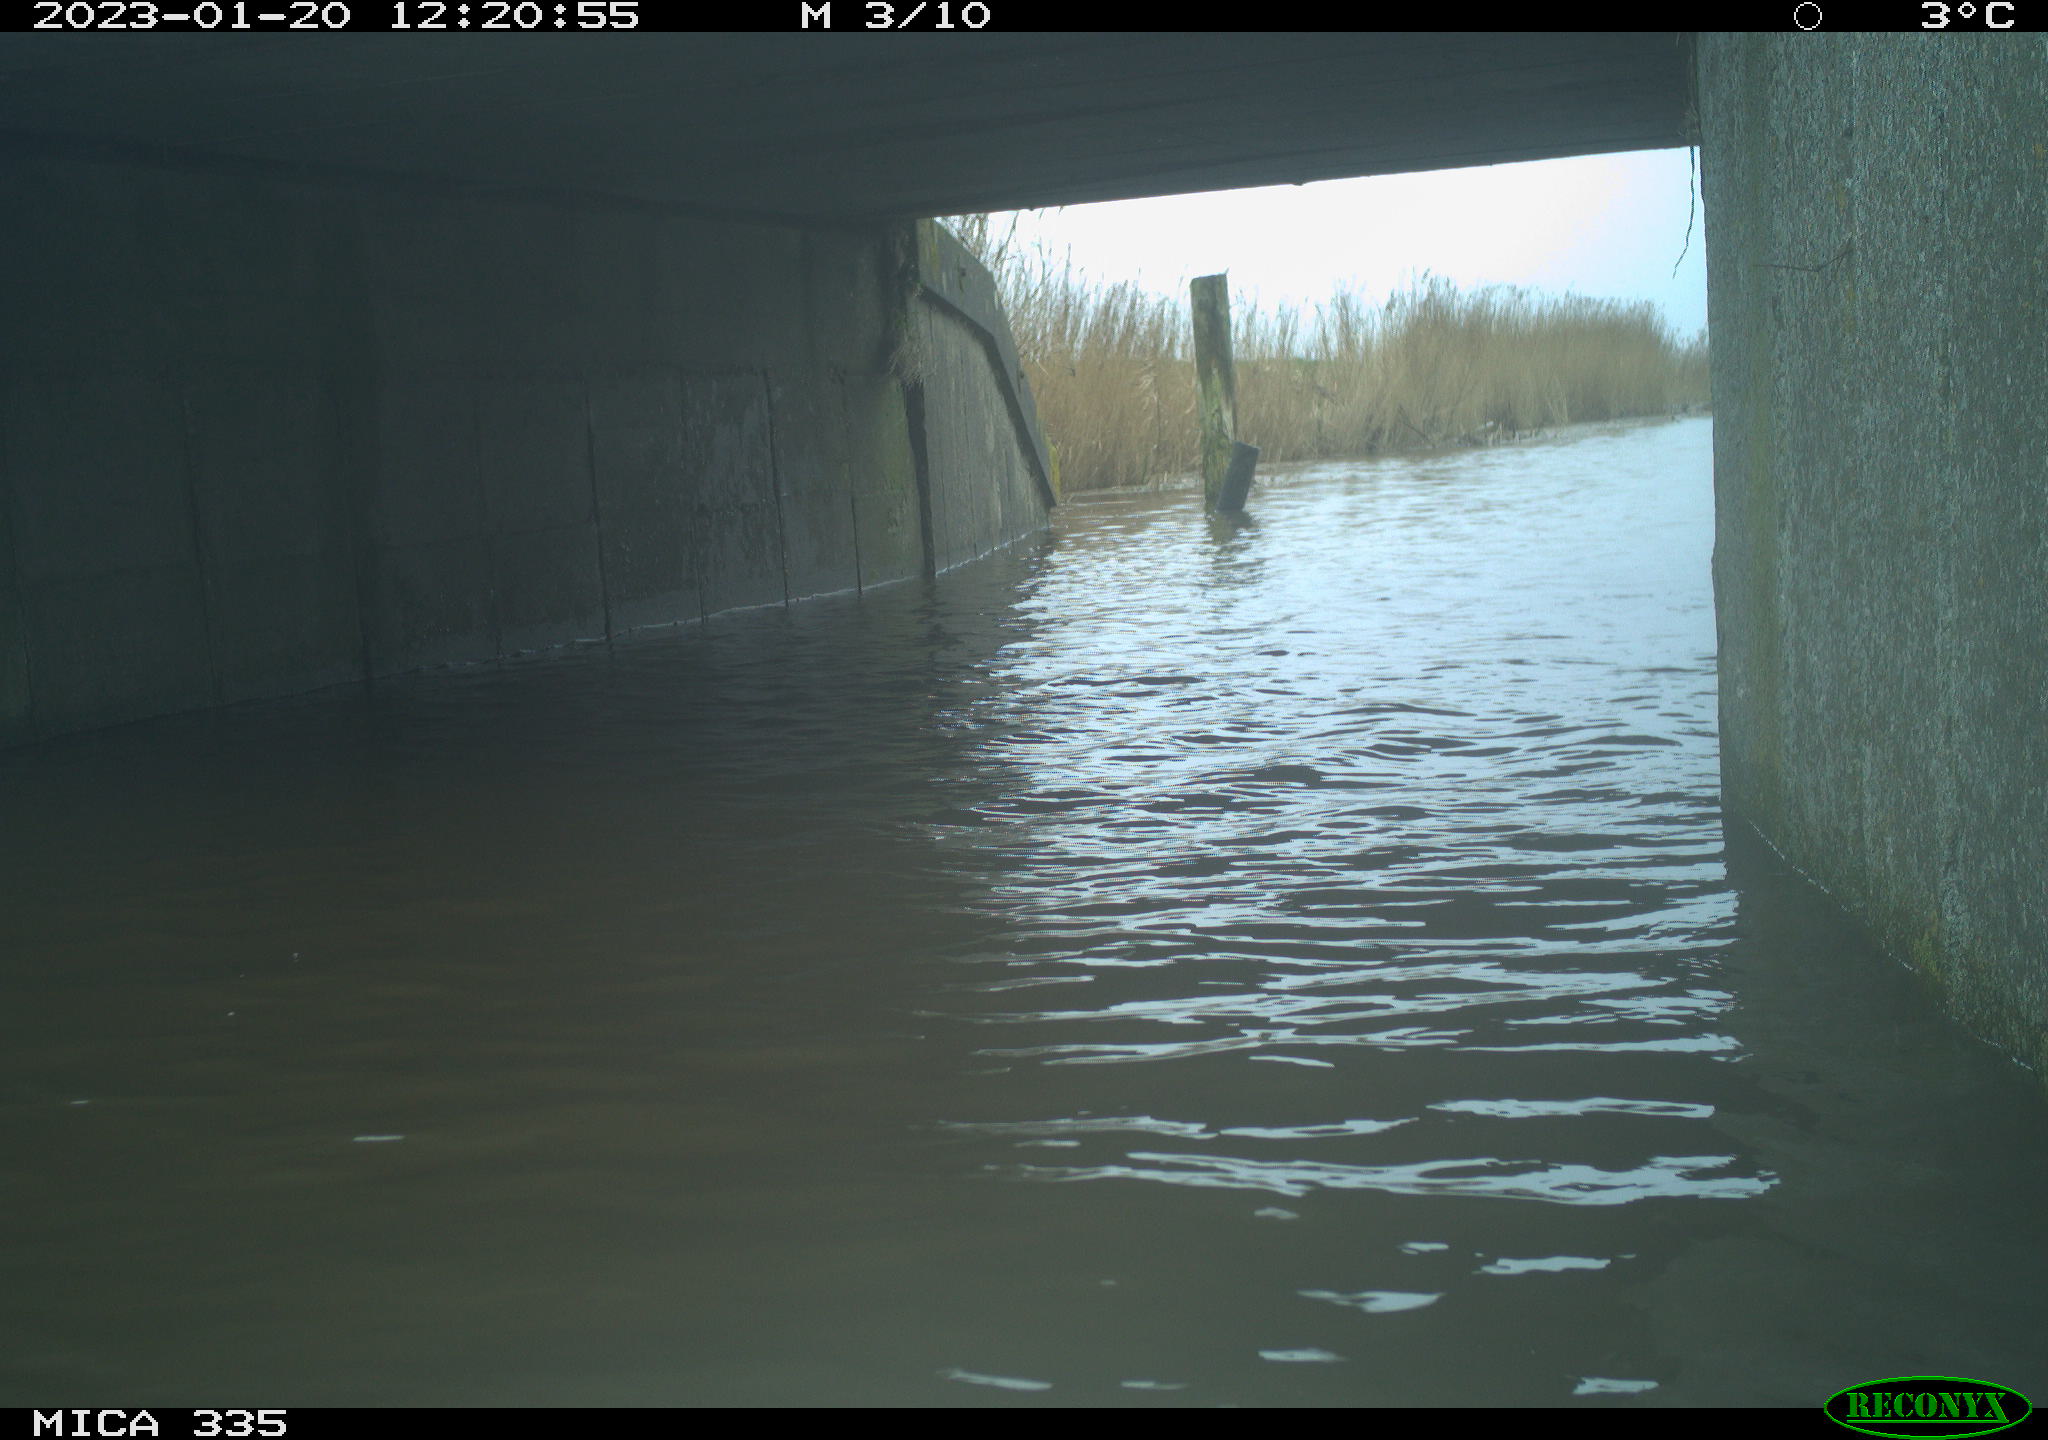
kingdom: Animalia
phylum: Chordata
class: Aves
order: Anseriformes
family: Anatidae
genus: Cygnus
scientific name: Cygnus olor
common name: Mute swan
